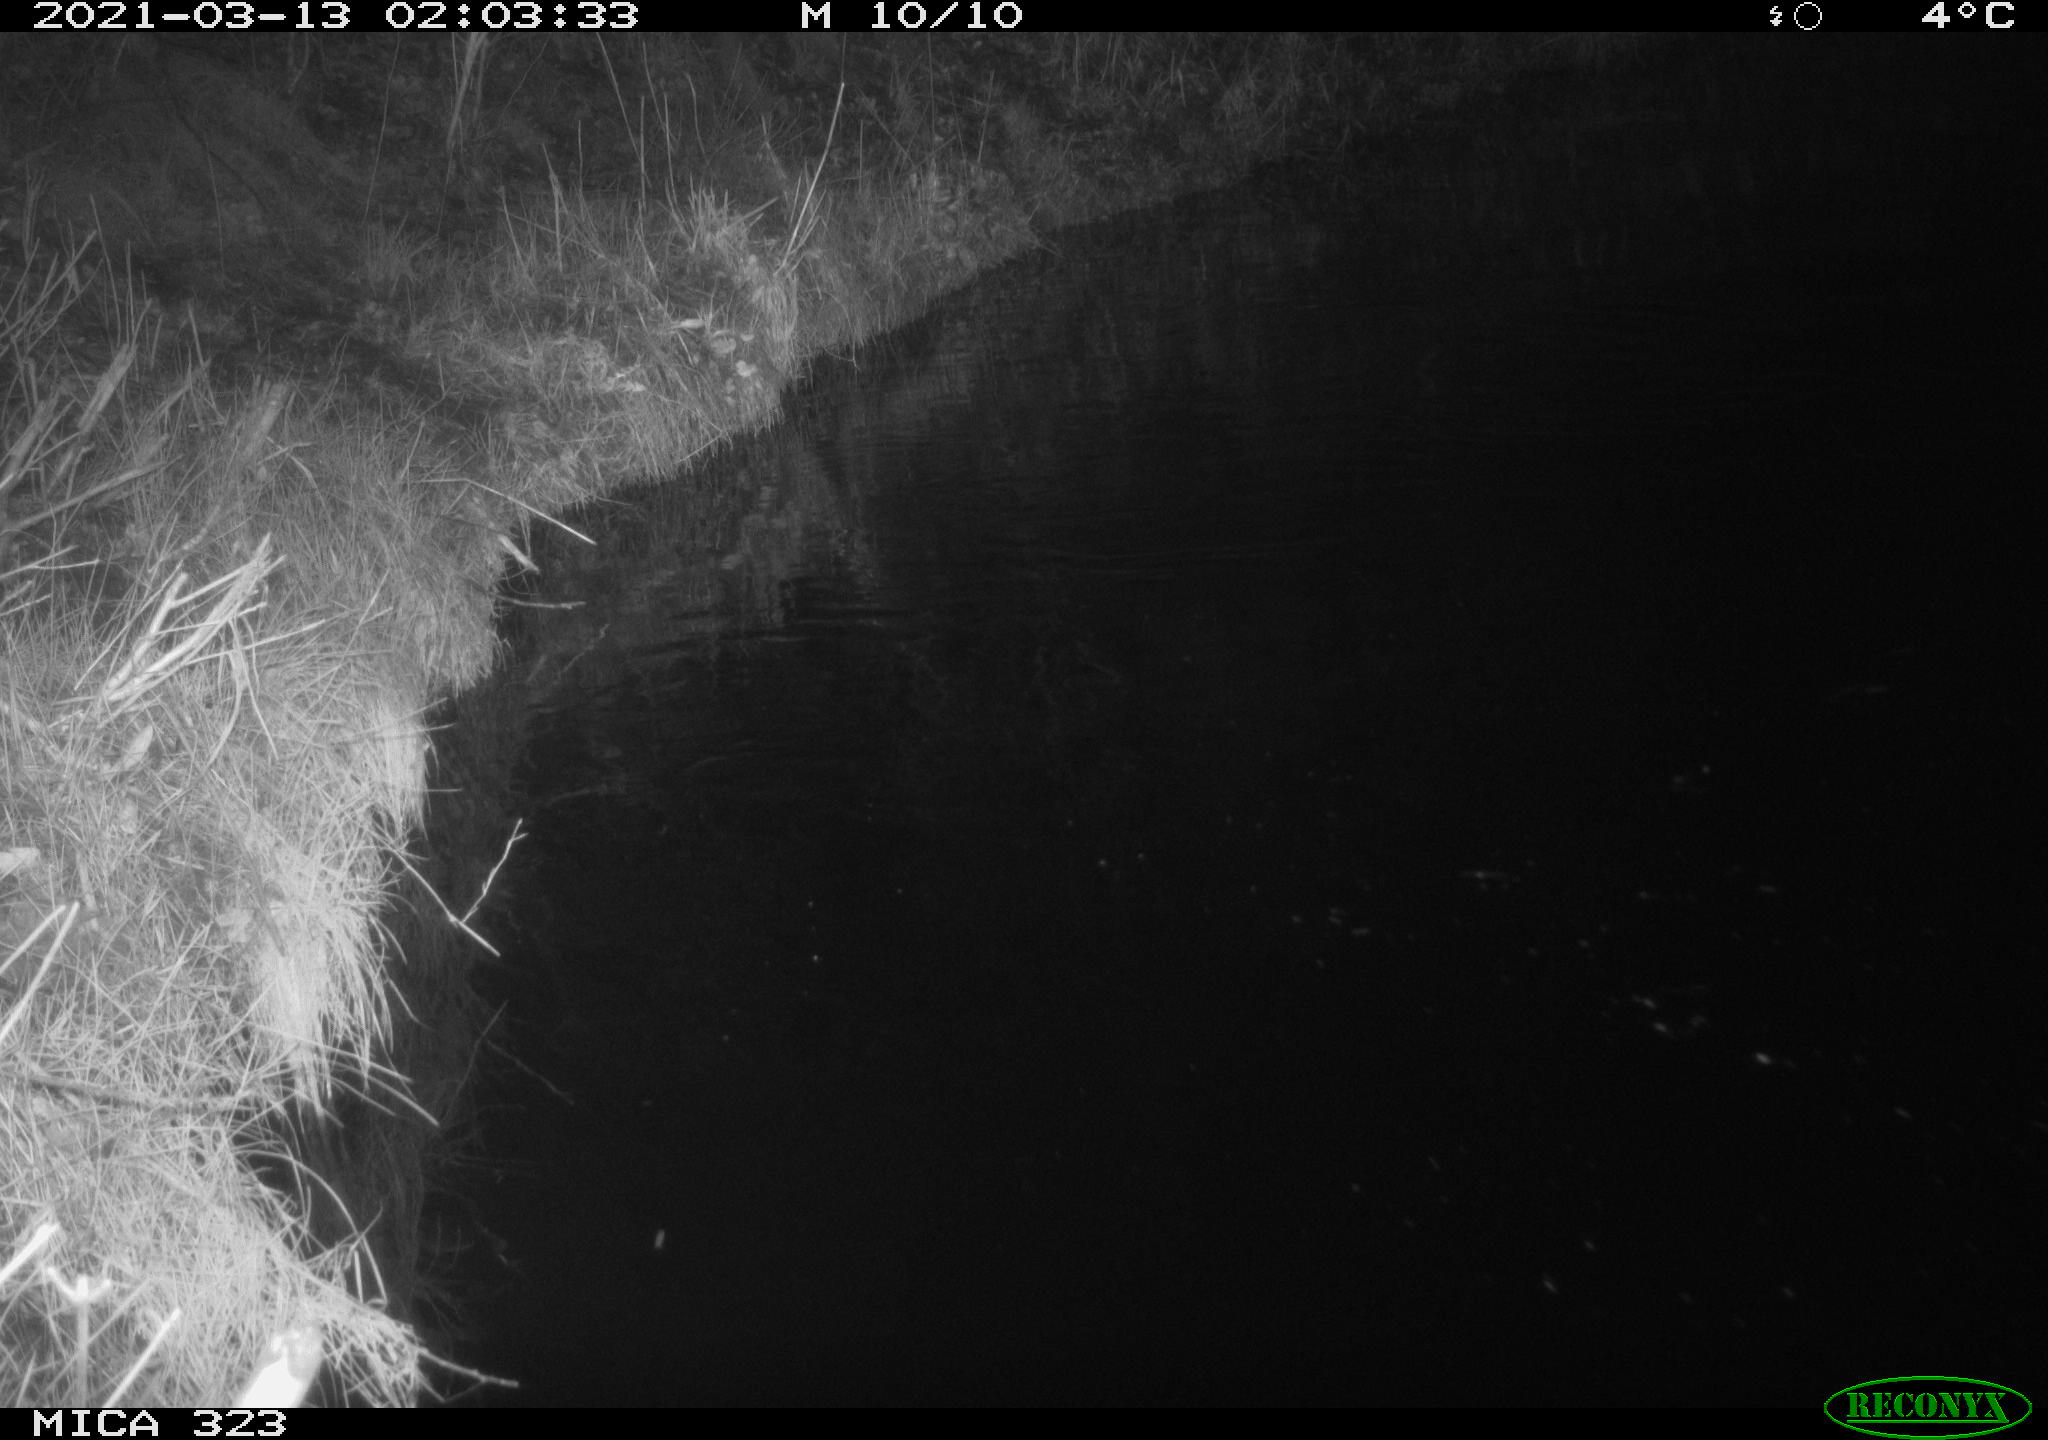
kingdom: Animalia
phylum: Chordata
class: Mammalia
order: Rodentia
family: Myocastoridae
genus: Myocastor
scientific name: Myocastor coypus
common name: Coypu
